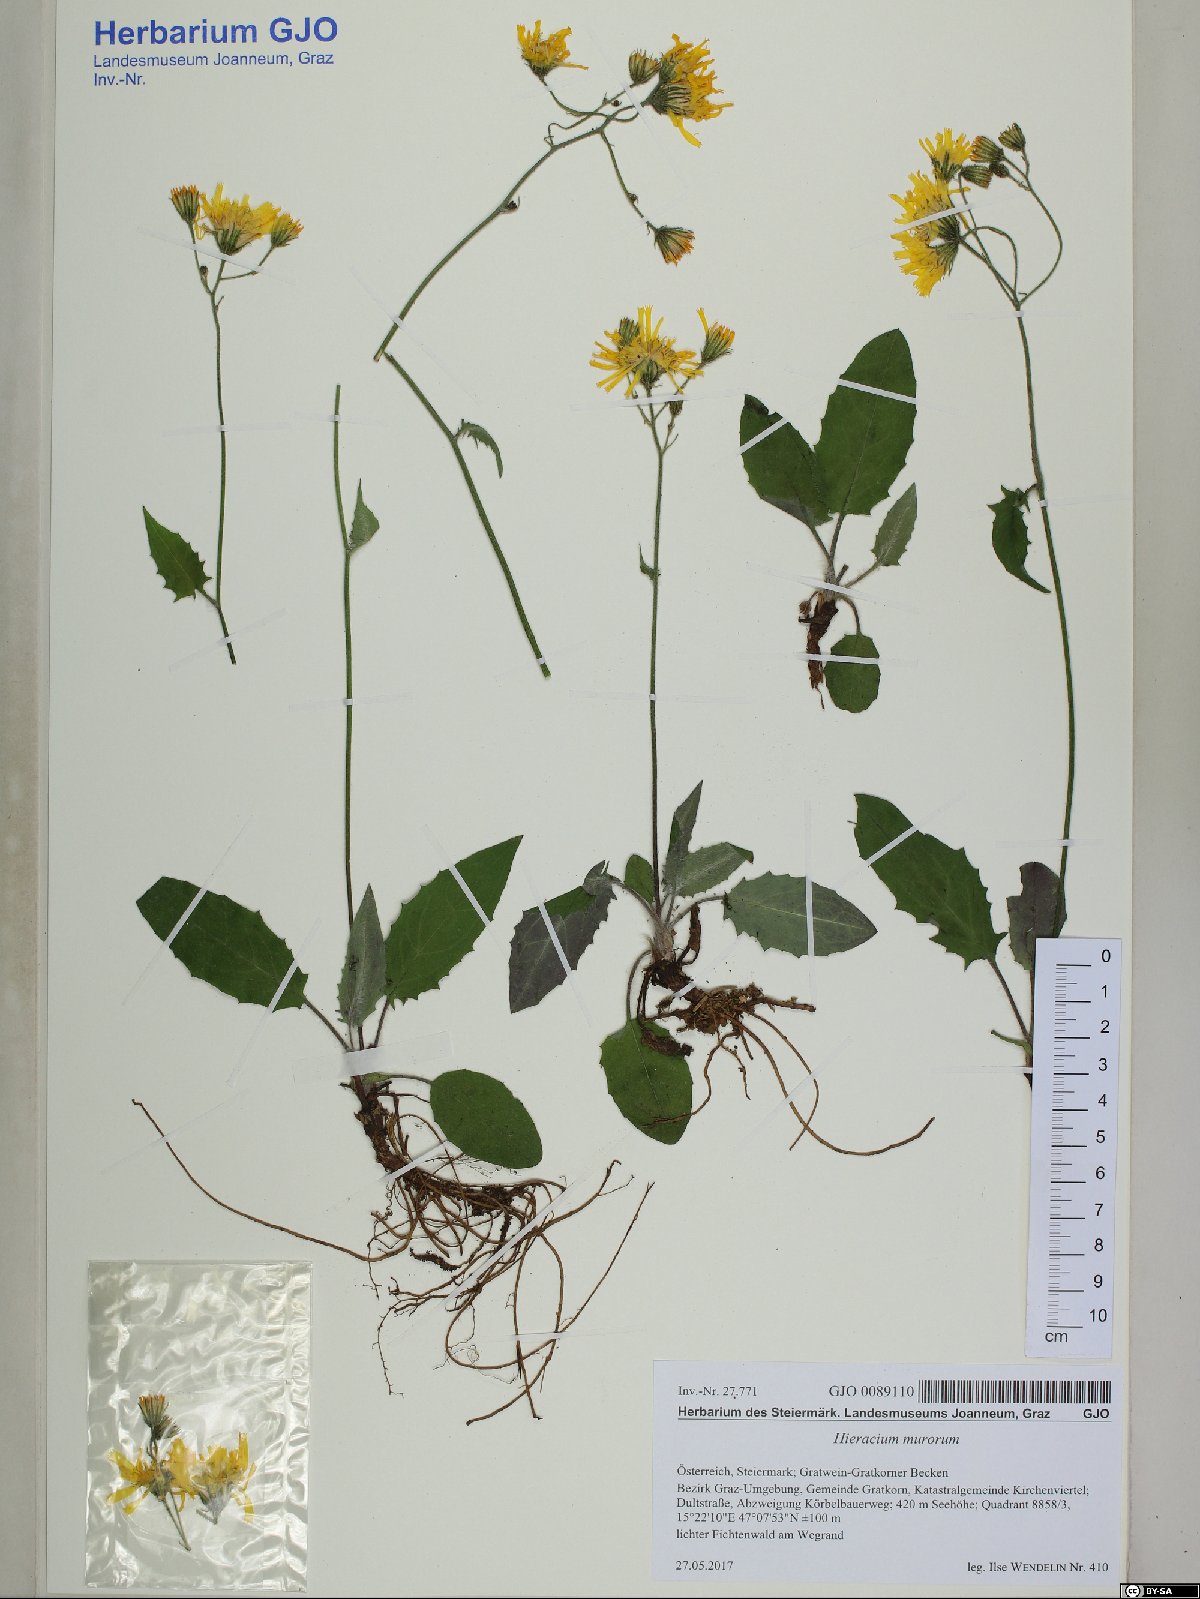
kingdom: Plantae
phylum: Tracheophyta
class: Magnoliopsida
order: Asterales
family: Asteraceae
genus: Hieracium
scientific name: Hieracium murorum
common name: Wall hawkweed
